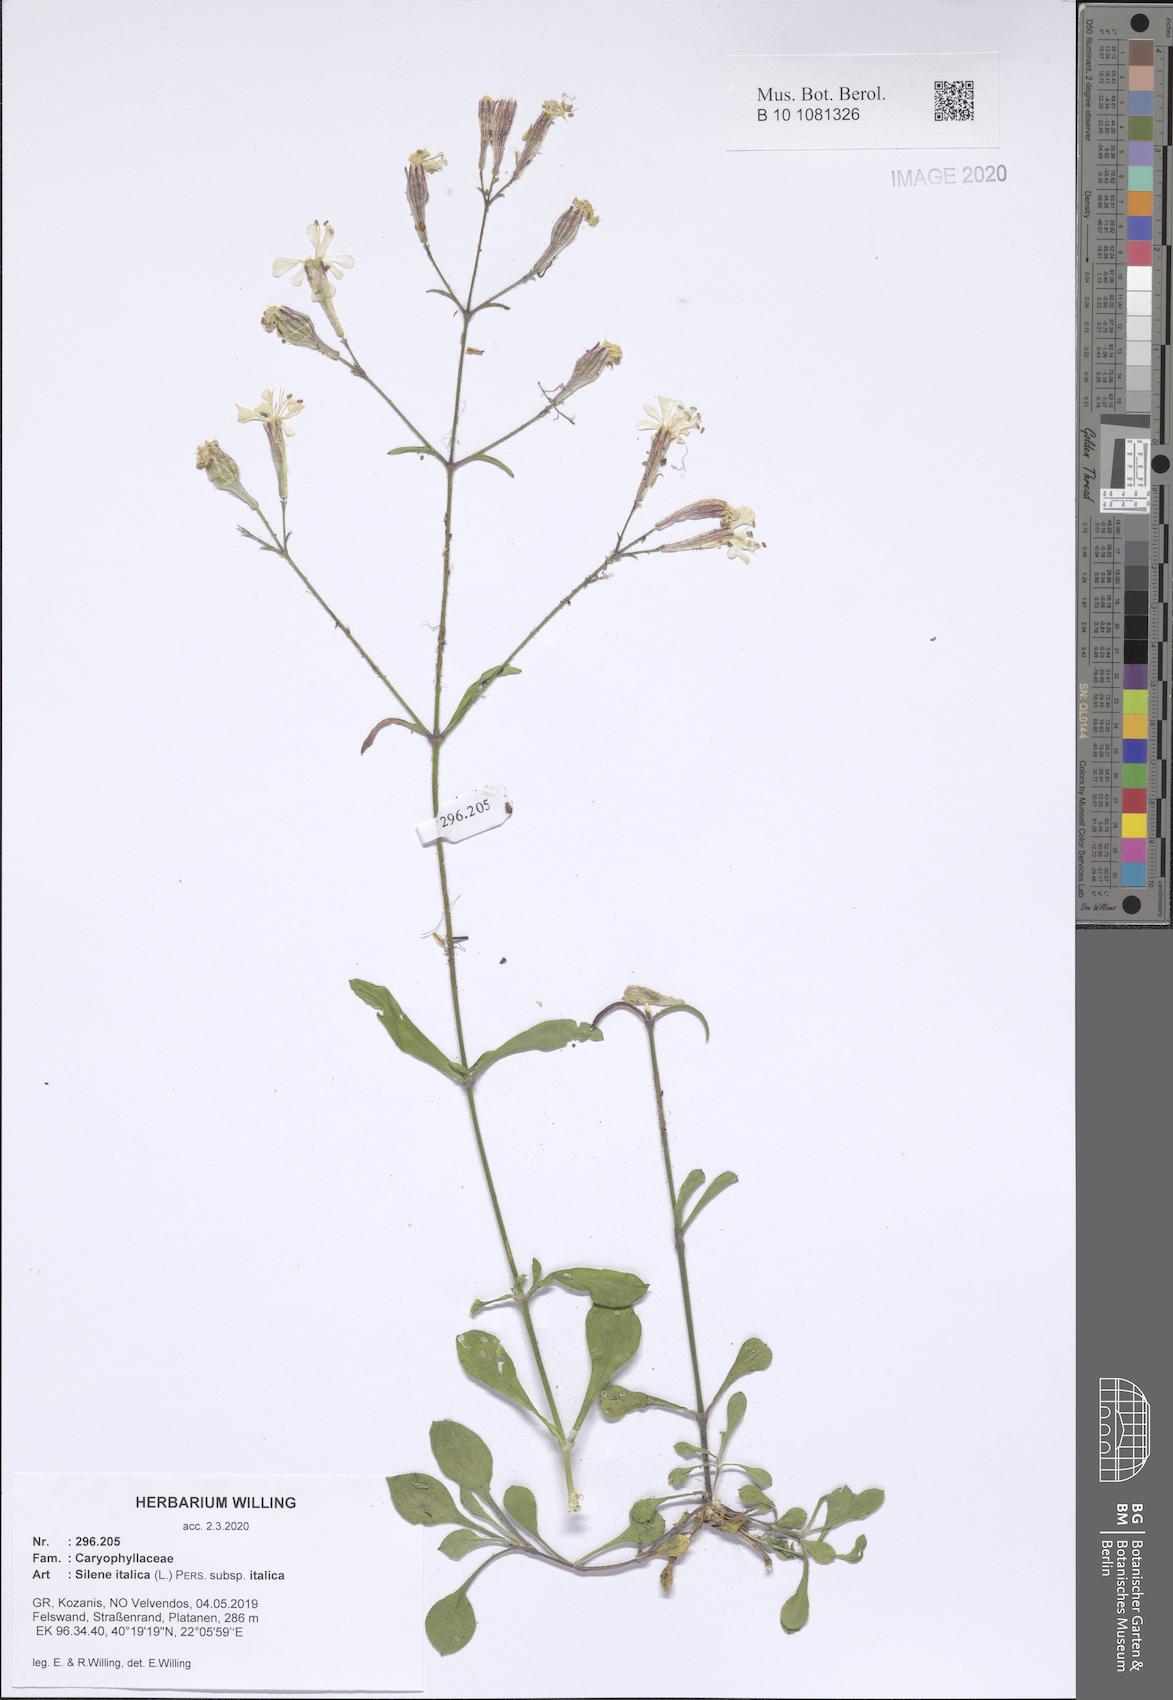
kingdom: Plantae
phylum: Tracheophyta
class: Magnoliopsida
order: Caryophyllales
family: Caryophyllaceae
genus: Silene
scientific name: Silene italica
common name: Italian catchfly
